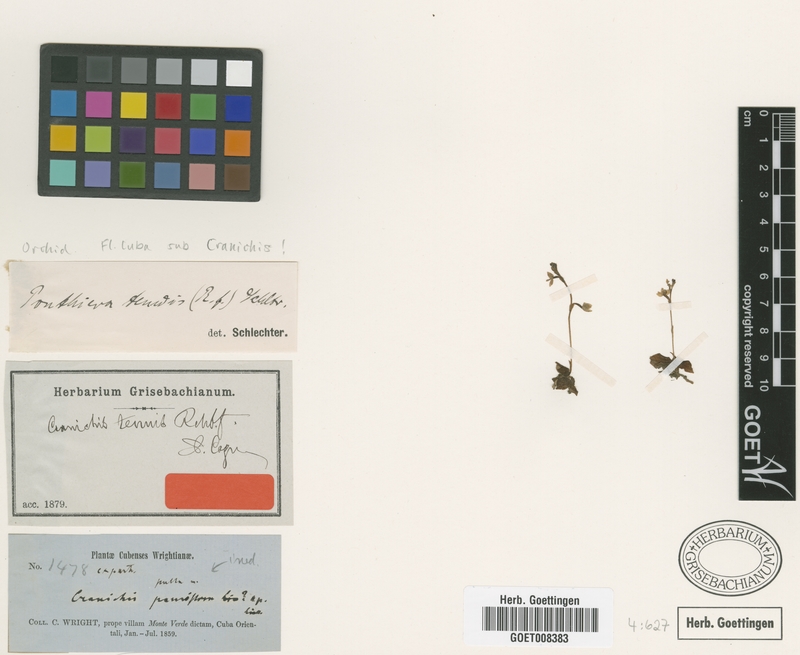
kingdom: Plantae
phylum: Tracheophyta
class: Liliopsida
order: Asparagales
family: Orchidaceae
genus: Cranichis
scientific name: Cranichis tenuis
